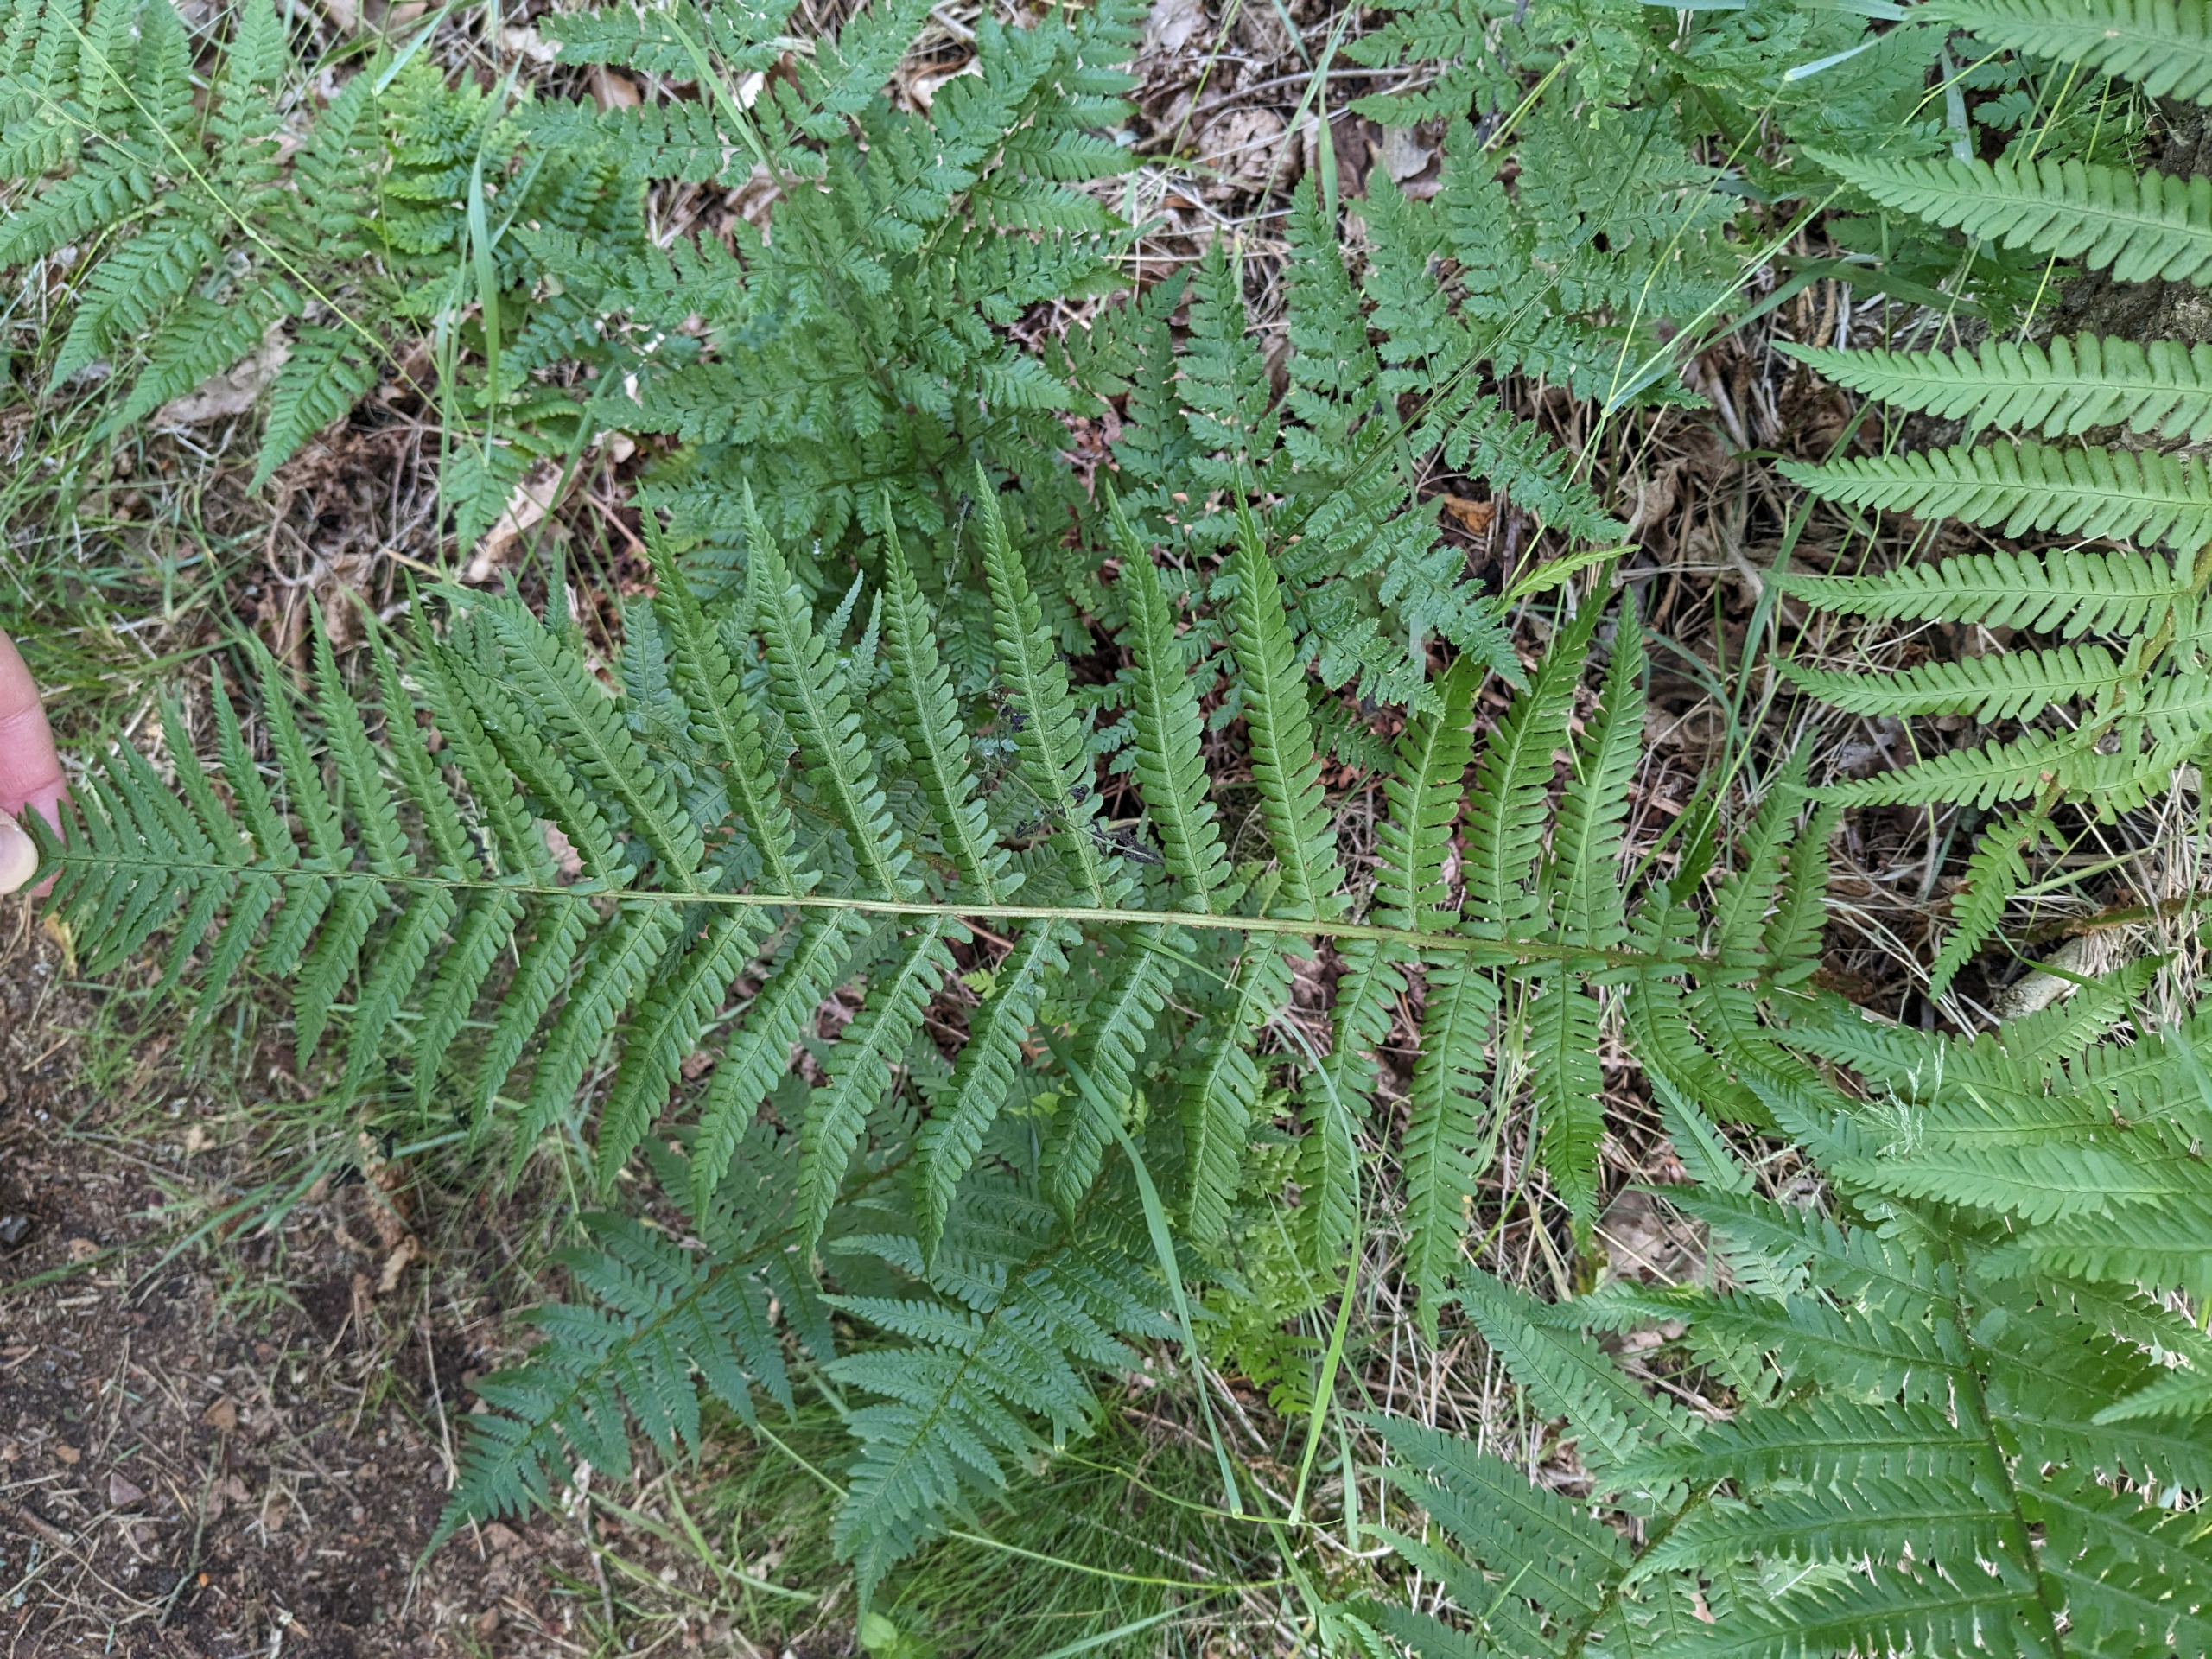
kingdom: Plantae
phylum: Tracheophyta
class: Polypodiopsida
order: Polypodiales
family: Dryopteridaceae
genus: Dryopteris
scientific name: Dryopteris filix-mas
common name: Almindelig mangeløv
